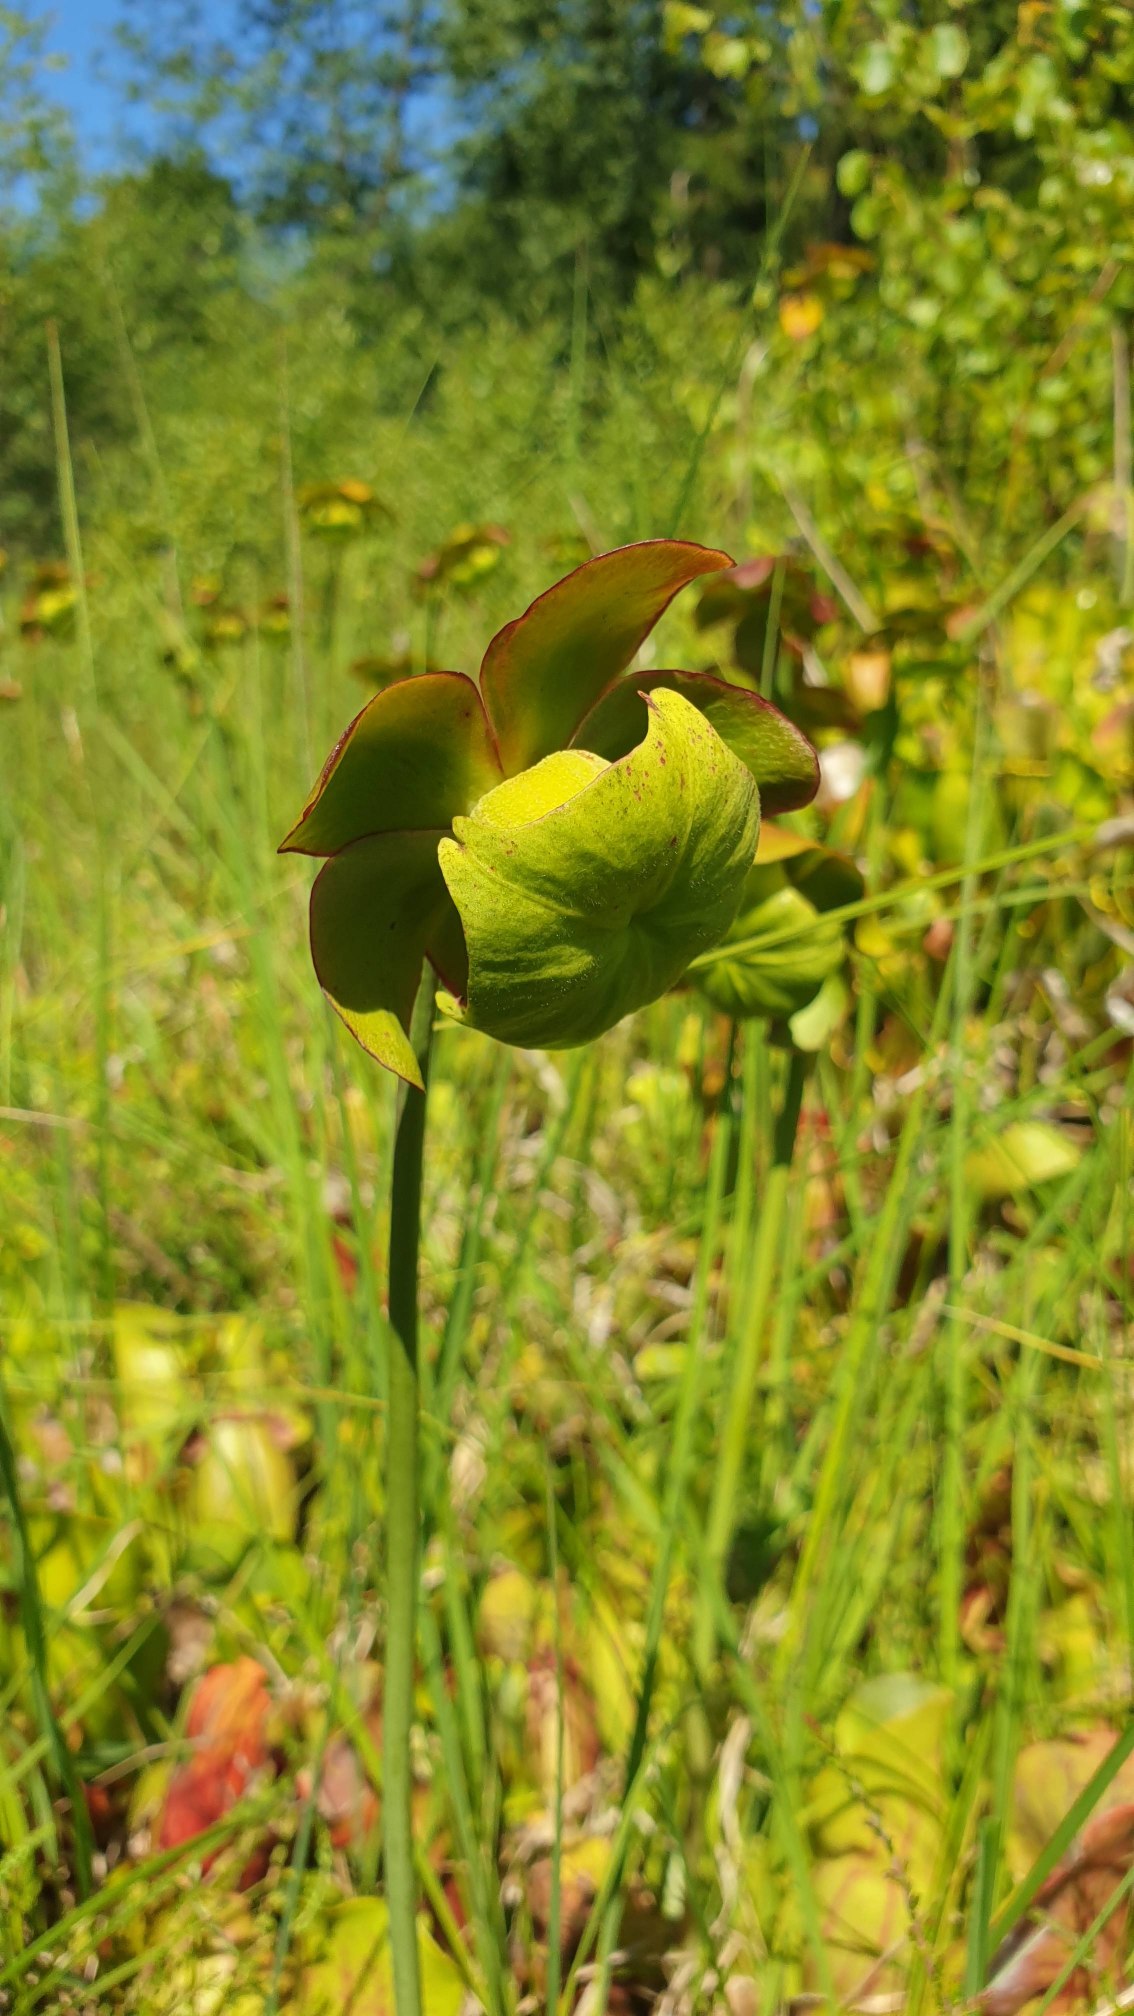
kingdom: Plantae
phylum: Tracheophyta
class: Magnoliopsida
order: Ericales
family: Sarraceniaceae
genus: Sarracenia
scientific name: Sarracenia purpurea
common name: Trompetblad
